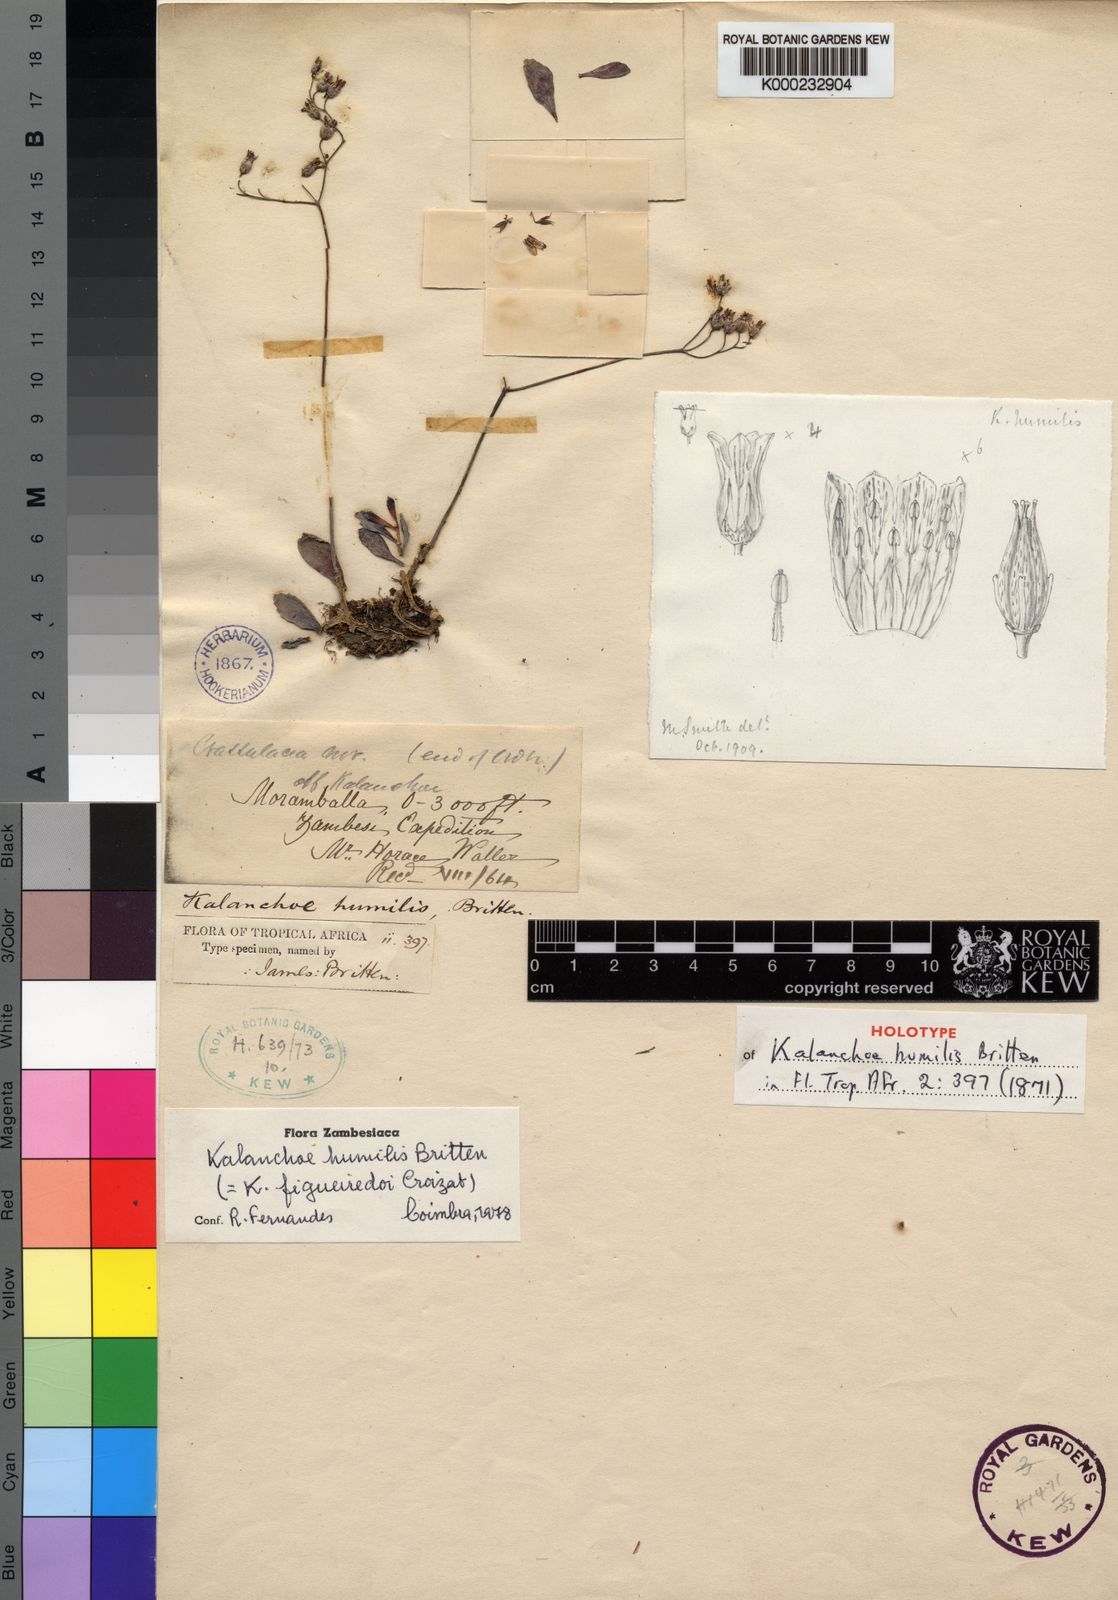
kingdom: Plantae
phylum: Tracheophyta
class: Magnoliopsida
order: Saxifragales
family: Crassulaceae
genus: Kalanchoe
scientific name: Kalanchoe humilis
